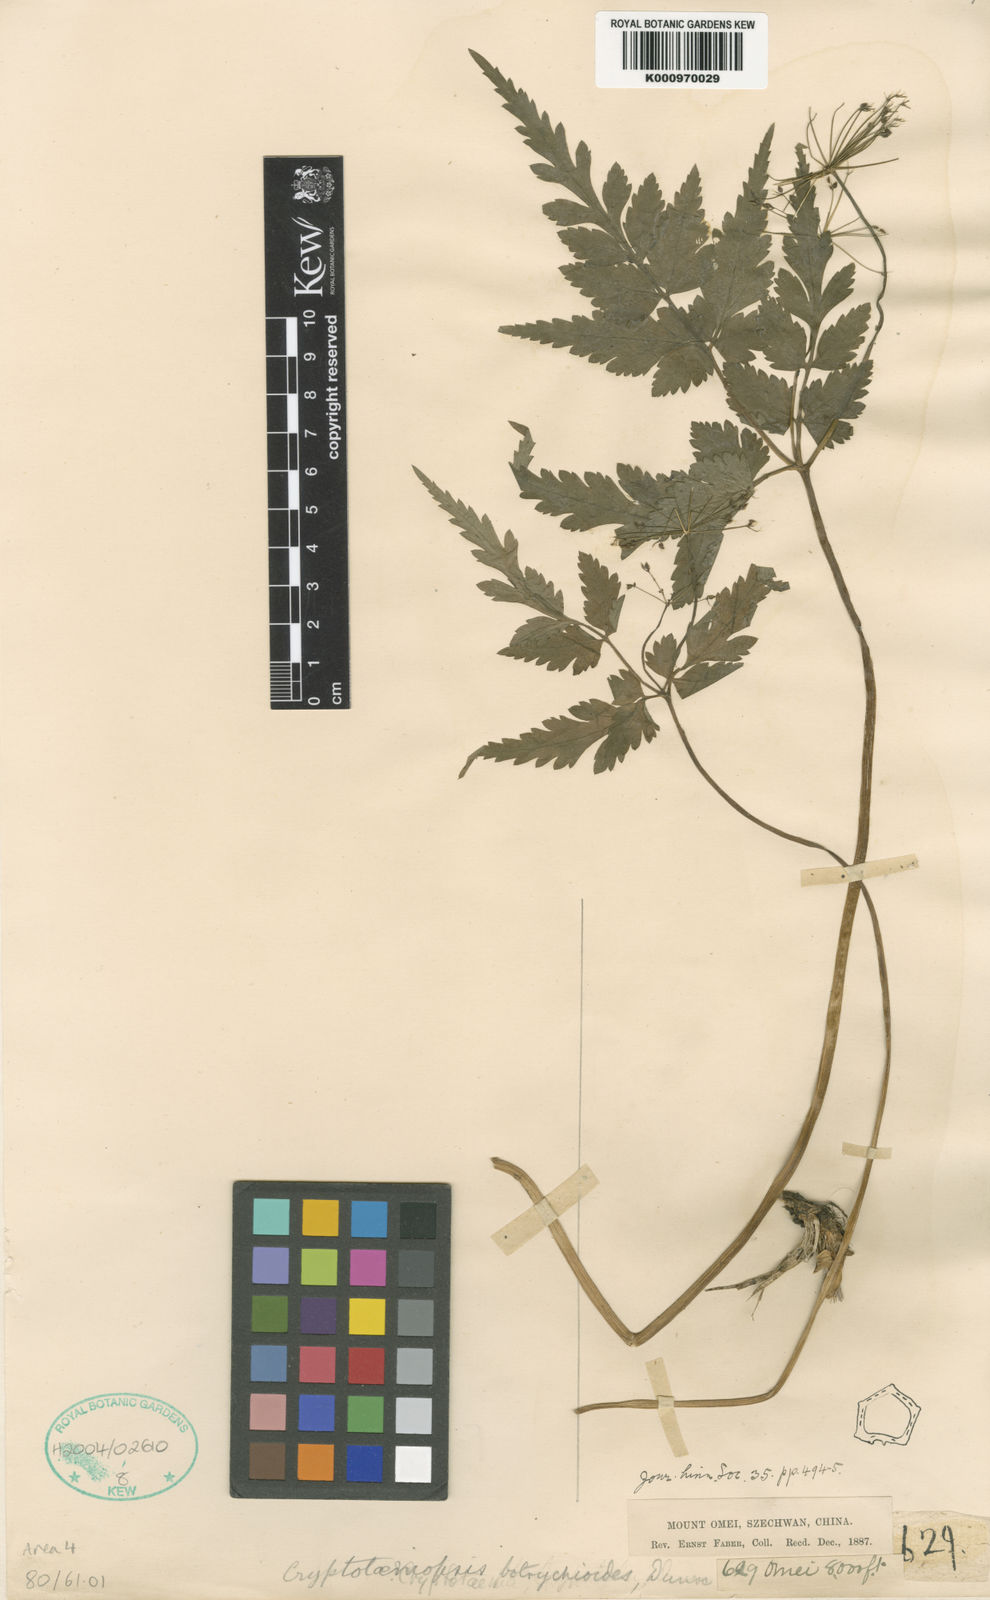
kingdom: Plantae
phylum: Tracheophyta
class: Magnoliopsida
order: Apiales
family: Apiaceae
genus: Pternopetalum
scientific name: Pternopetalum botrychioides
